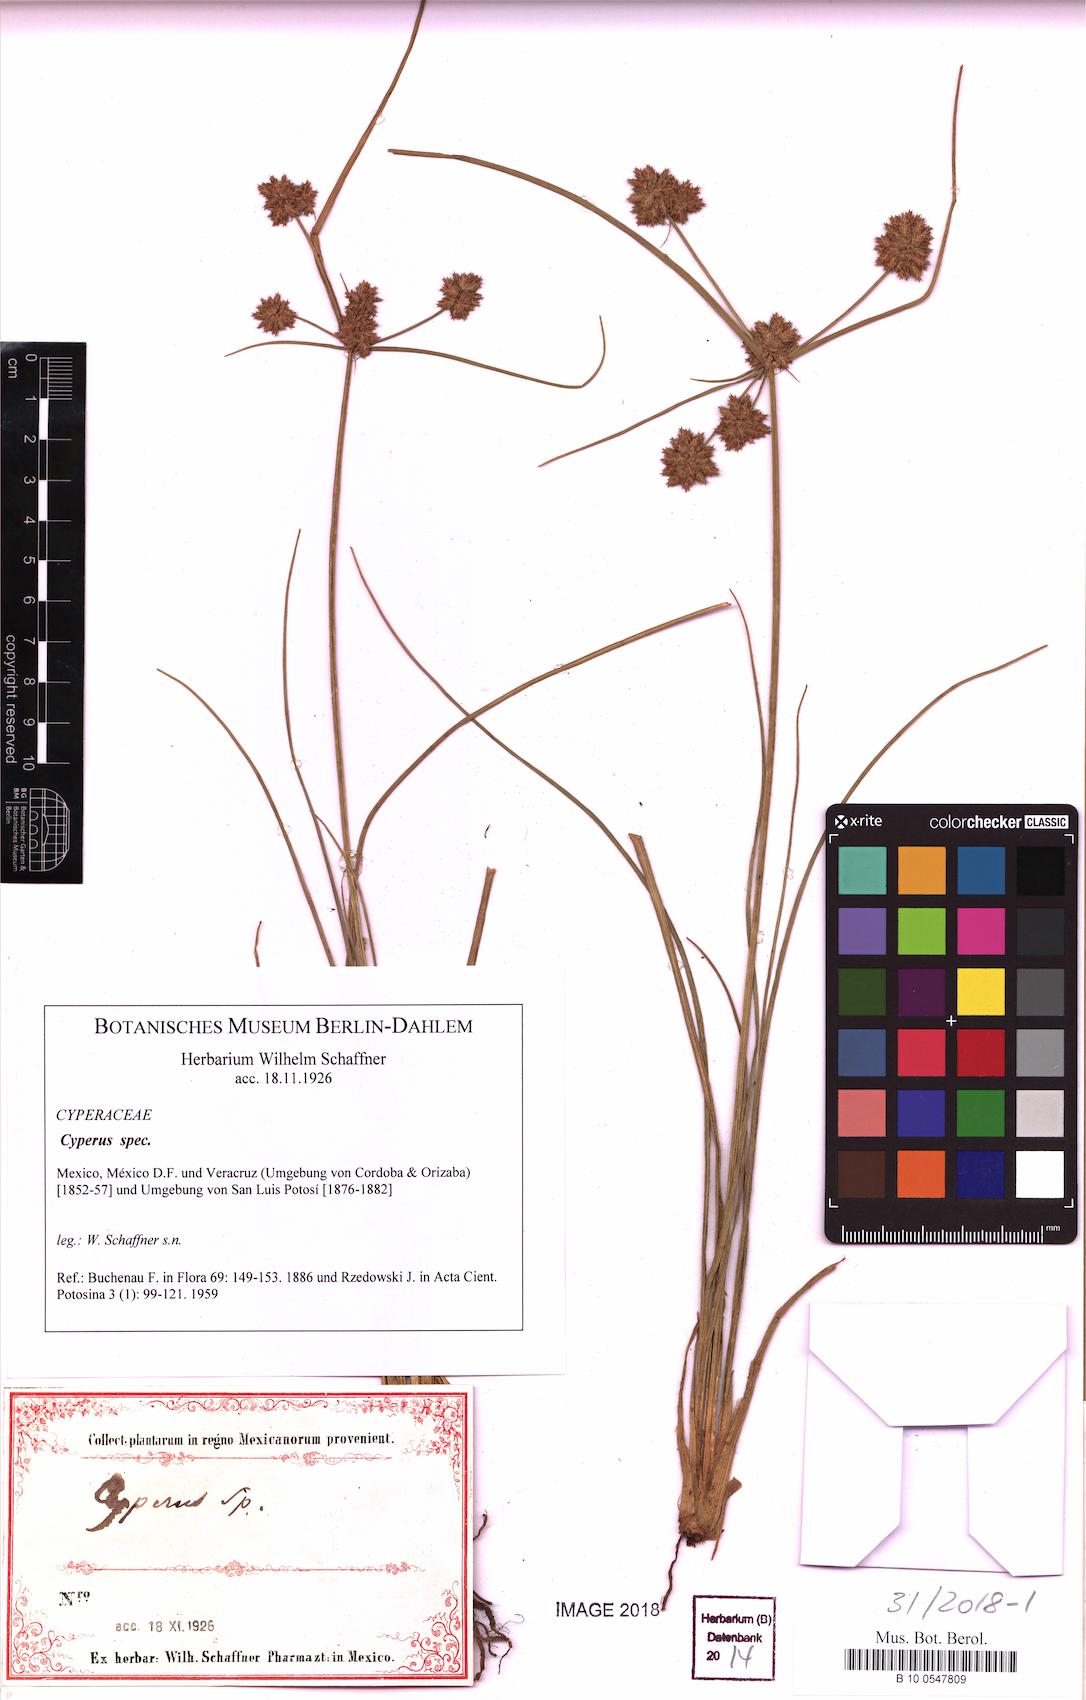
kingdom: Plantae
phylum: Tracheophyta
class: Liliopsida
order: Poales
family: Cyperaceae
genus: Cyperus
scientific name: Cyperus
